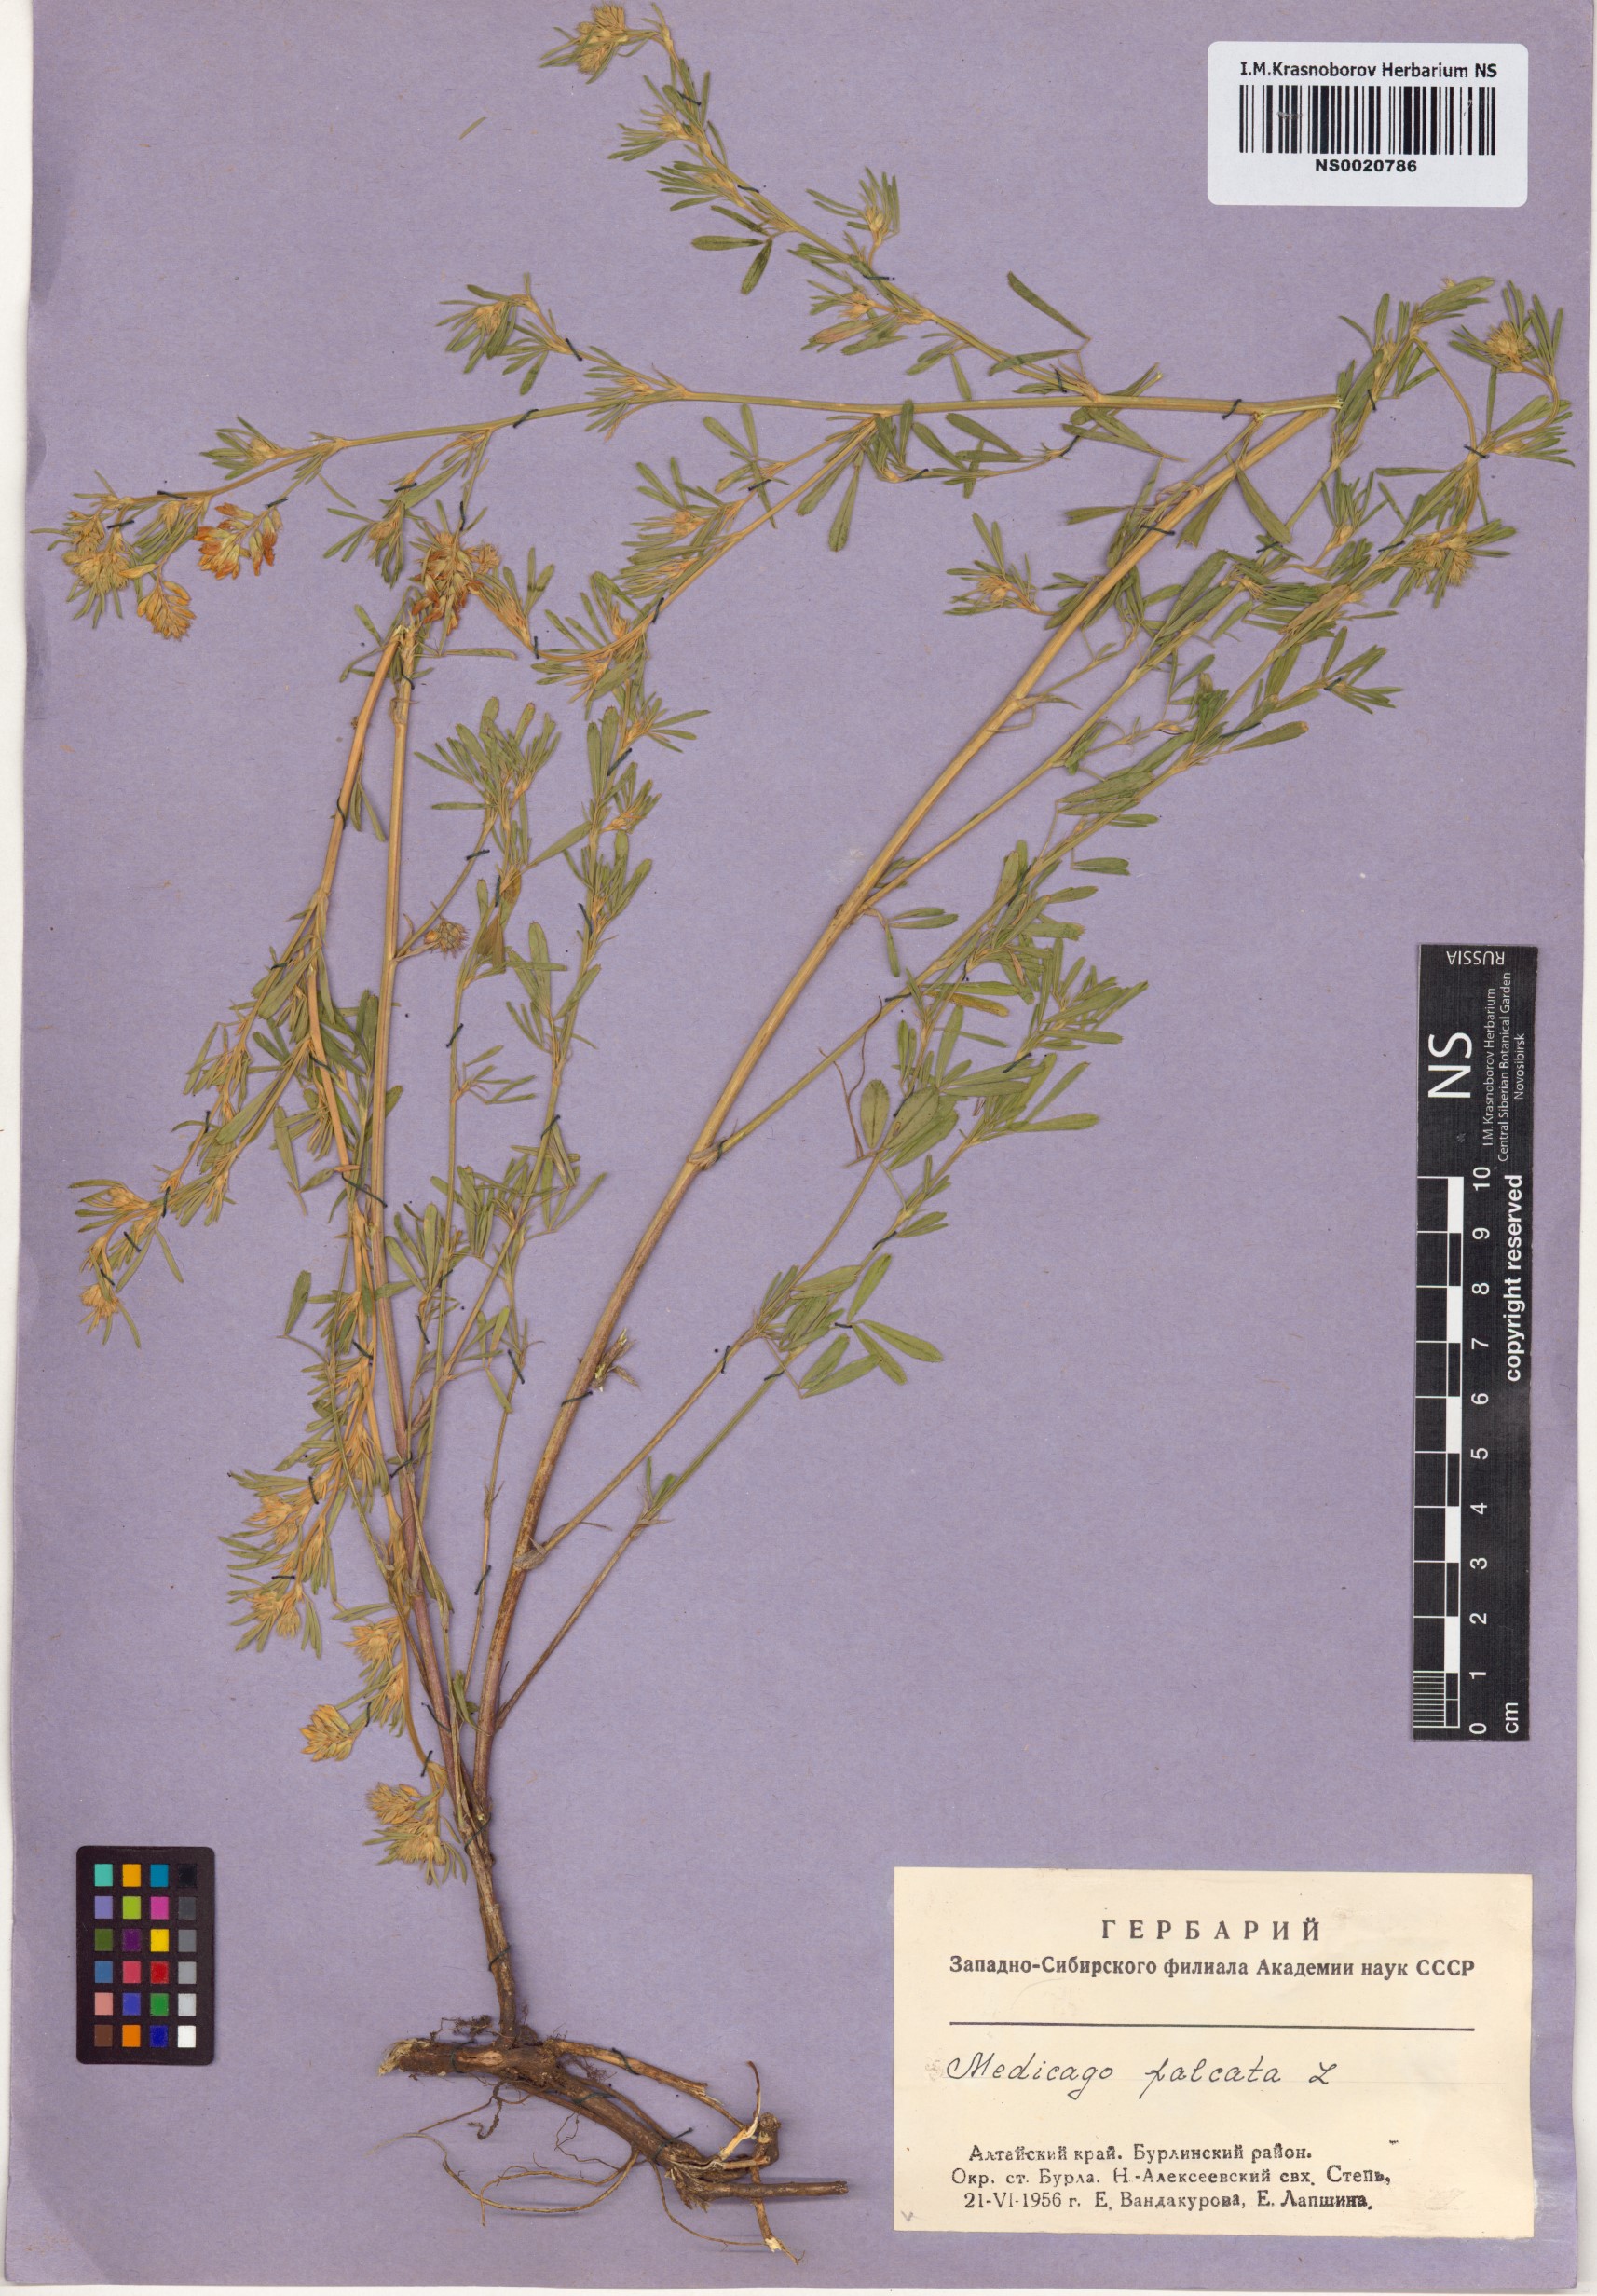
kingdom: Plantae
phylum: Tracheophyta
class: Magnoliopsida
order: Fabales
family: Fabaceae
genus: Medicago
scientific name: Medicago falcata
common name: Sickle medick
